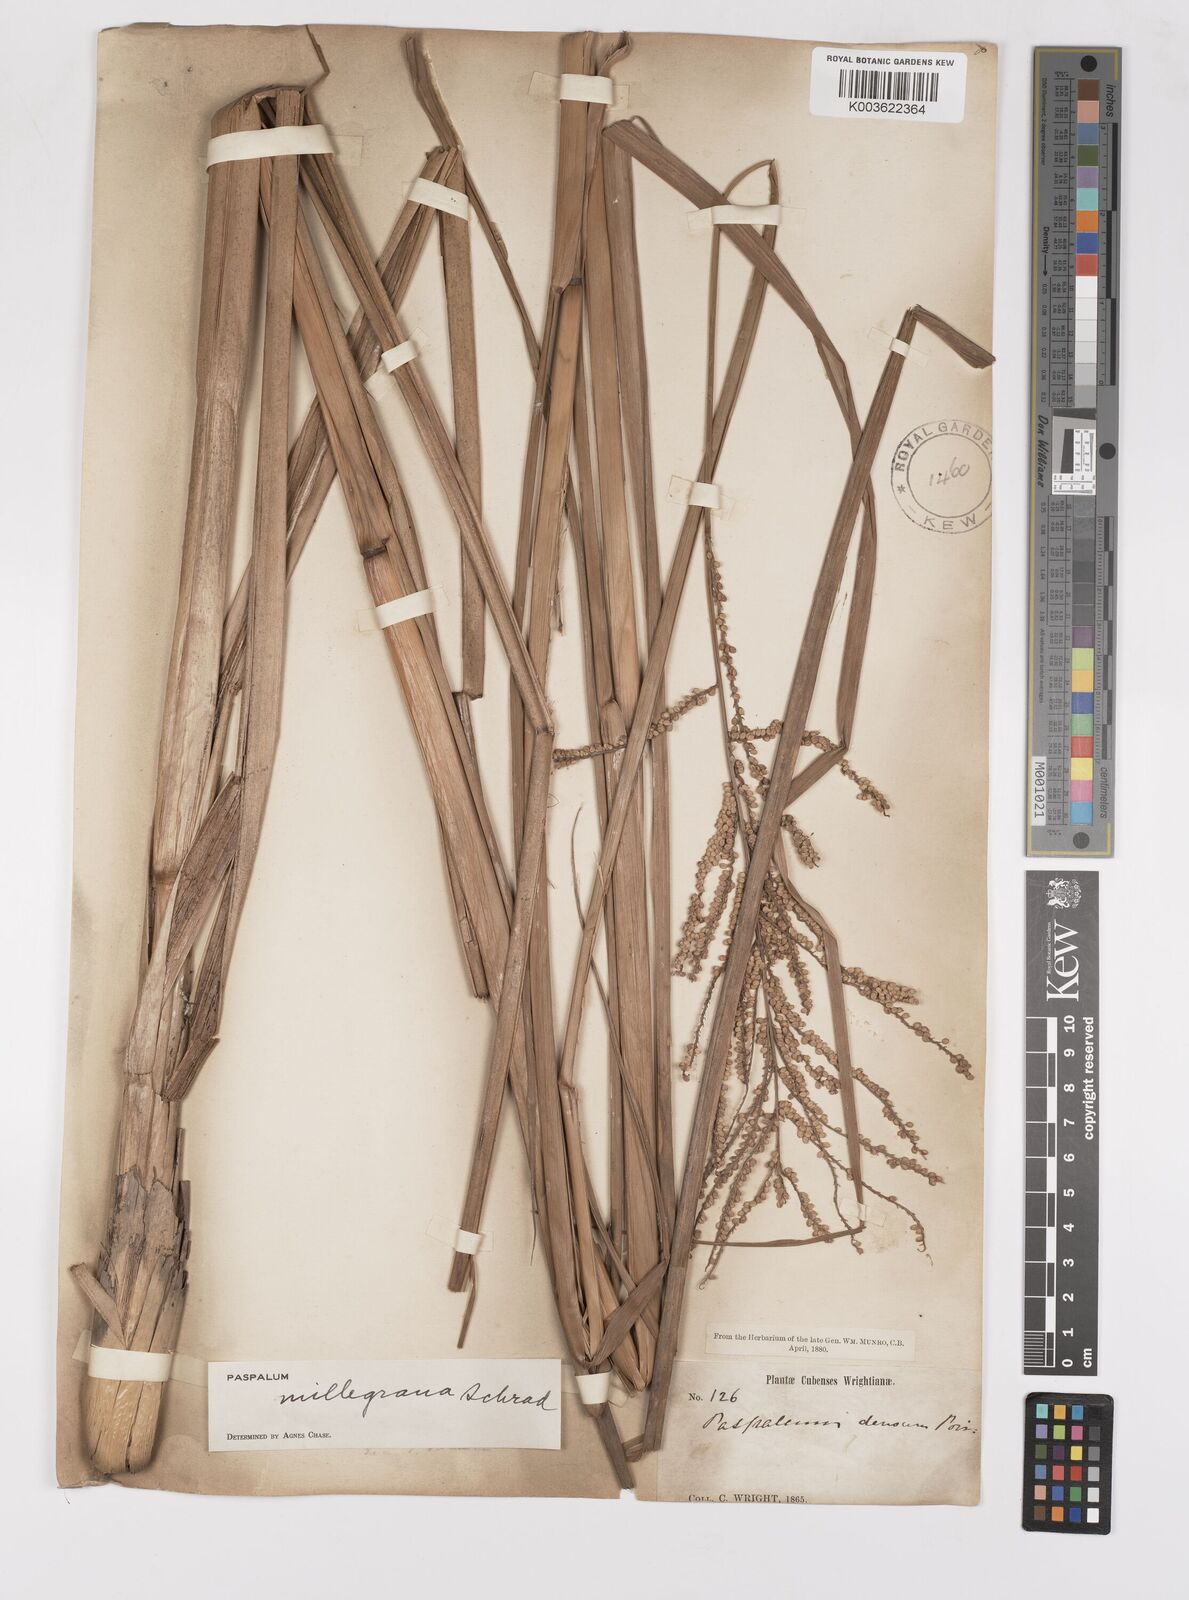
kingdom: Plantae
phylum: Tracheophyta
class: Liliopsida
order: Poales
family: Poaceae
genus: Paspalum
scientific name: Paspalum millegranum
